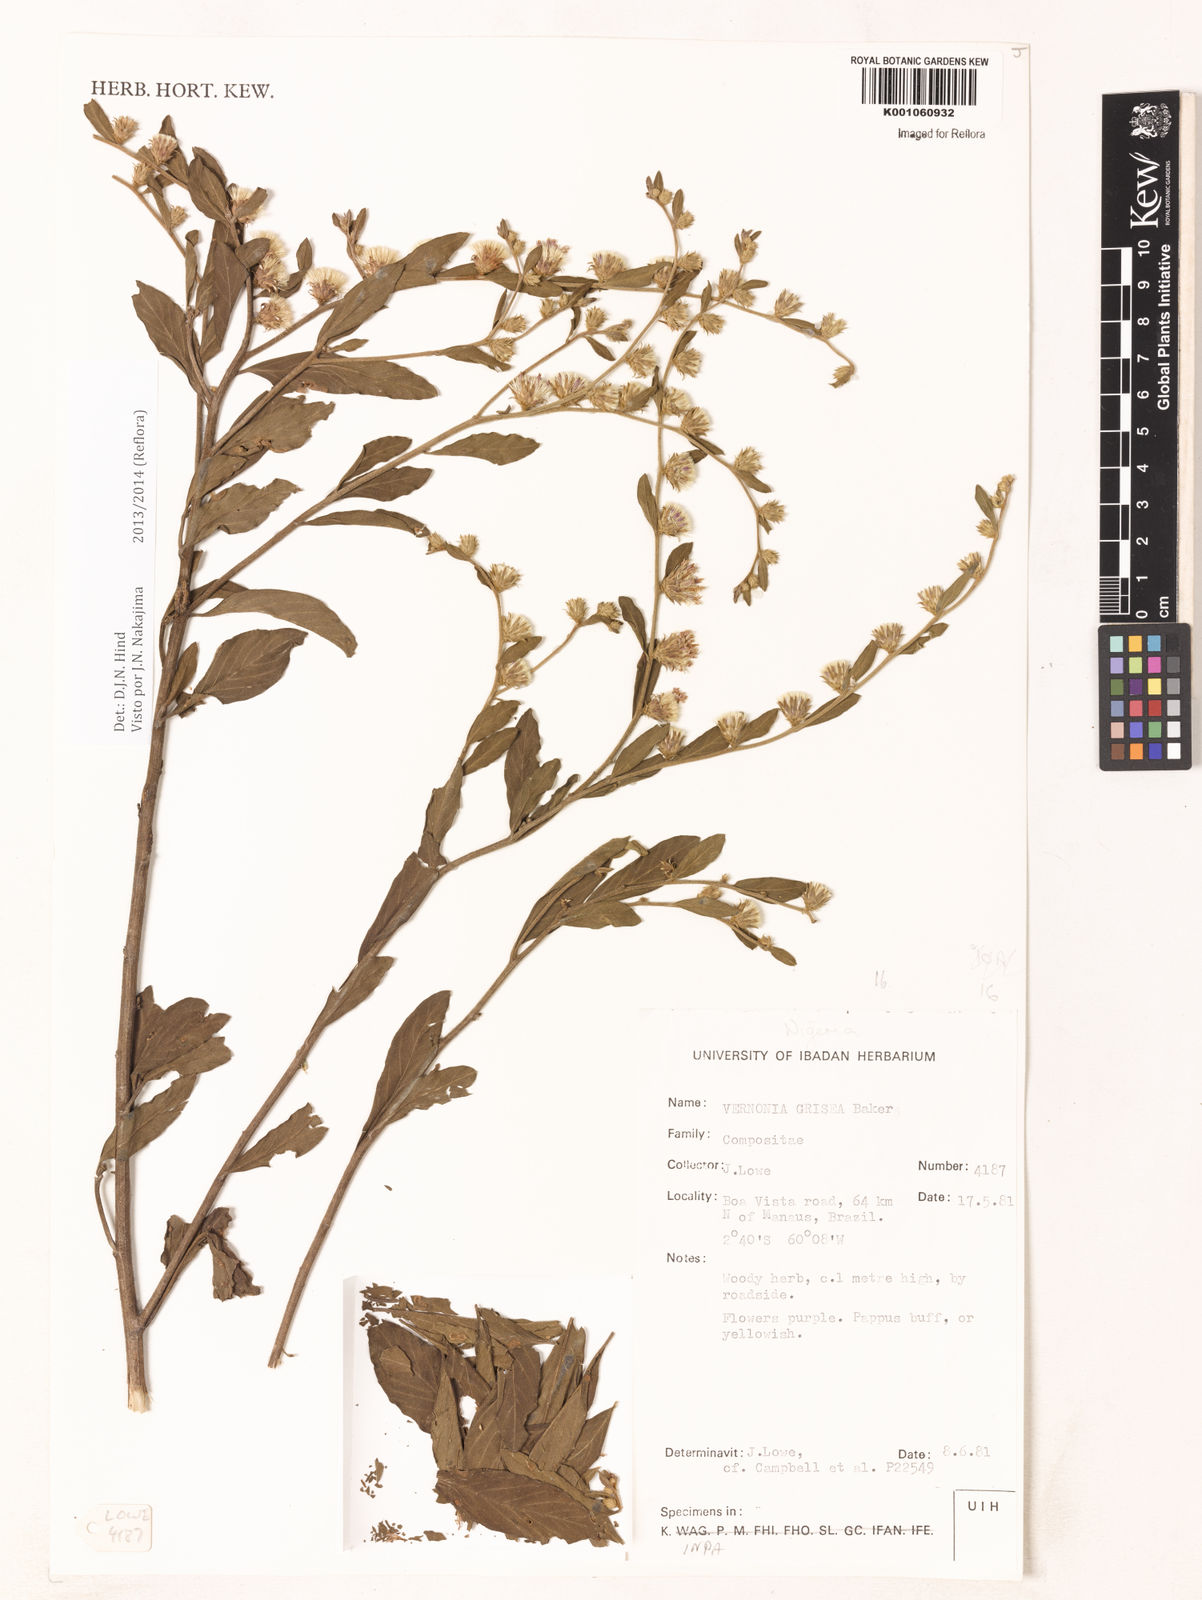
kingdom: Plantae
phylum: Tracheophyta
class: Magnoliopsida
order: Asterales
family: Asteraceae
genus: Lepidaploa
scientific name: Lepidaploa grisea
